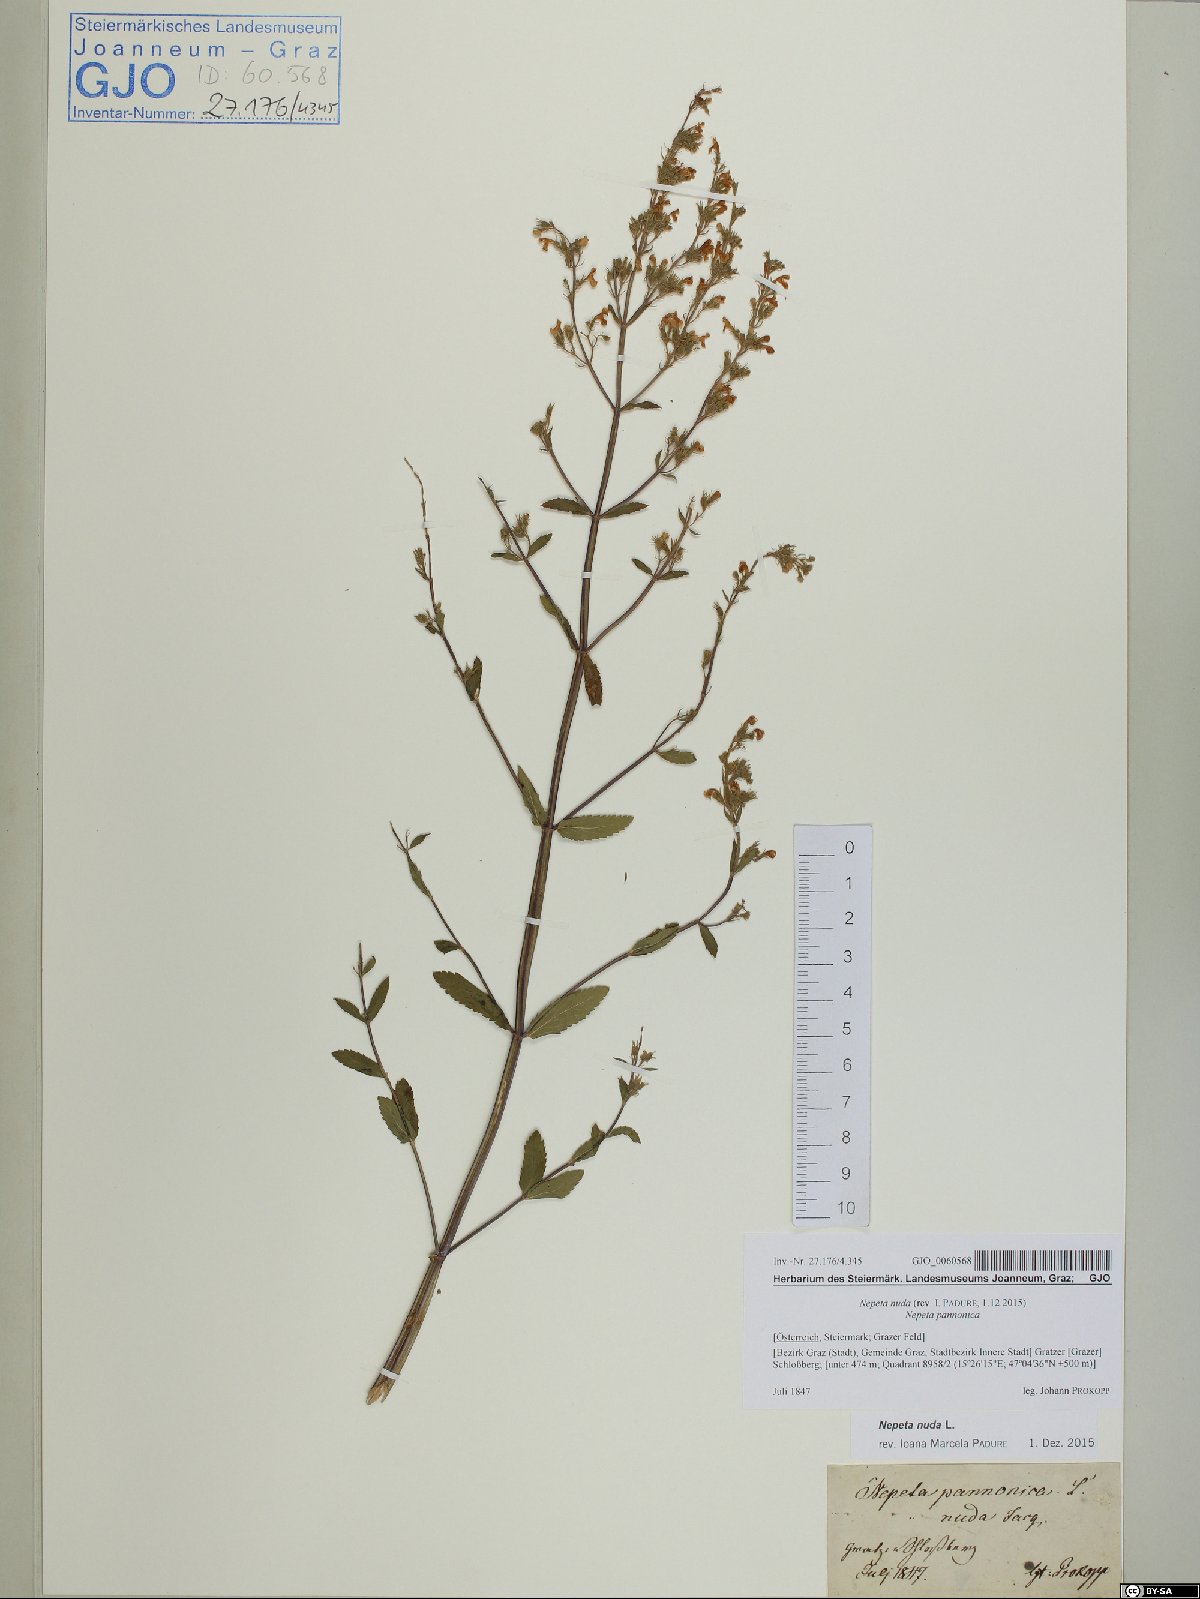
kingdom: Plantae
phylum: Tracheophyta
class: Magnoliopsida
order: Lamiales
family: Lamiaceae
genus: Nepeta
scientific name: Nepeta nuda
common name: Hairless catmint
